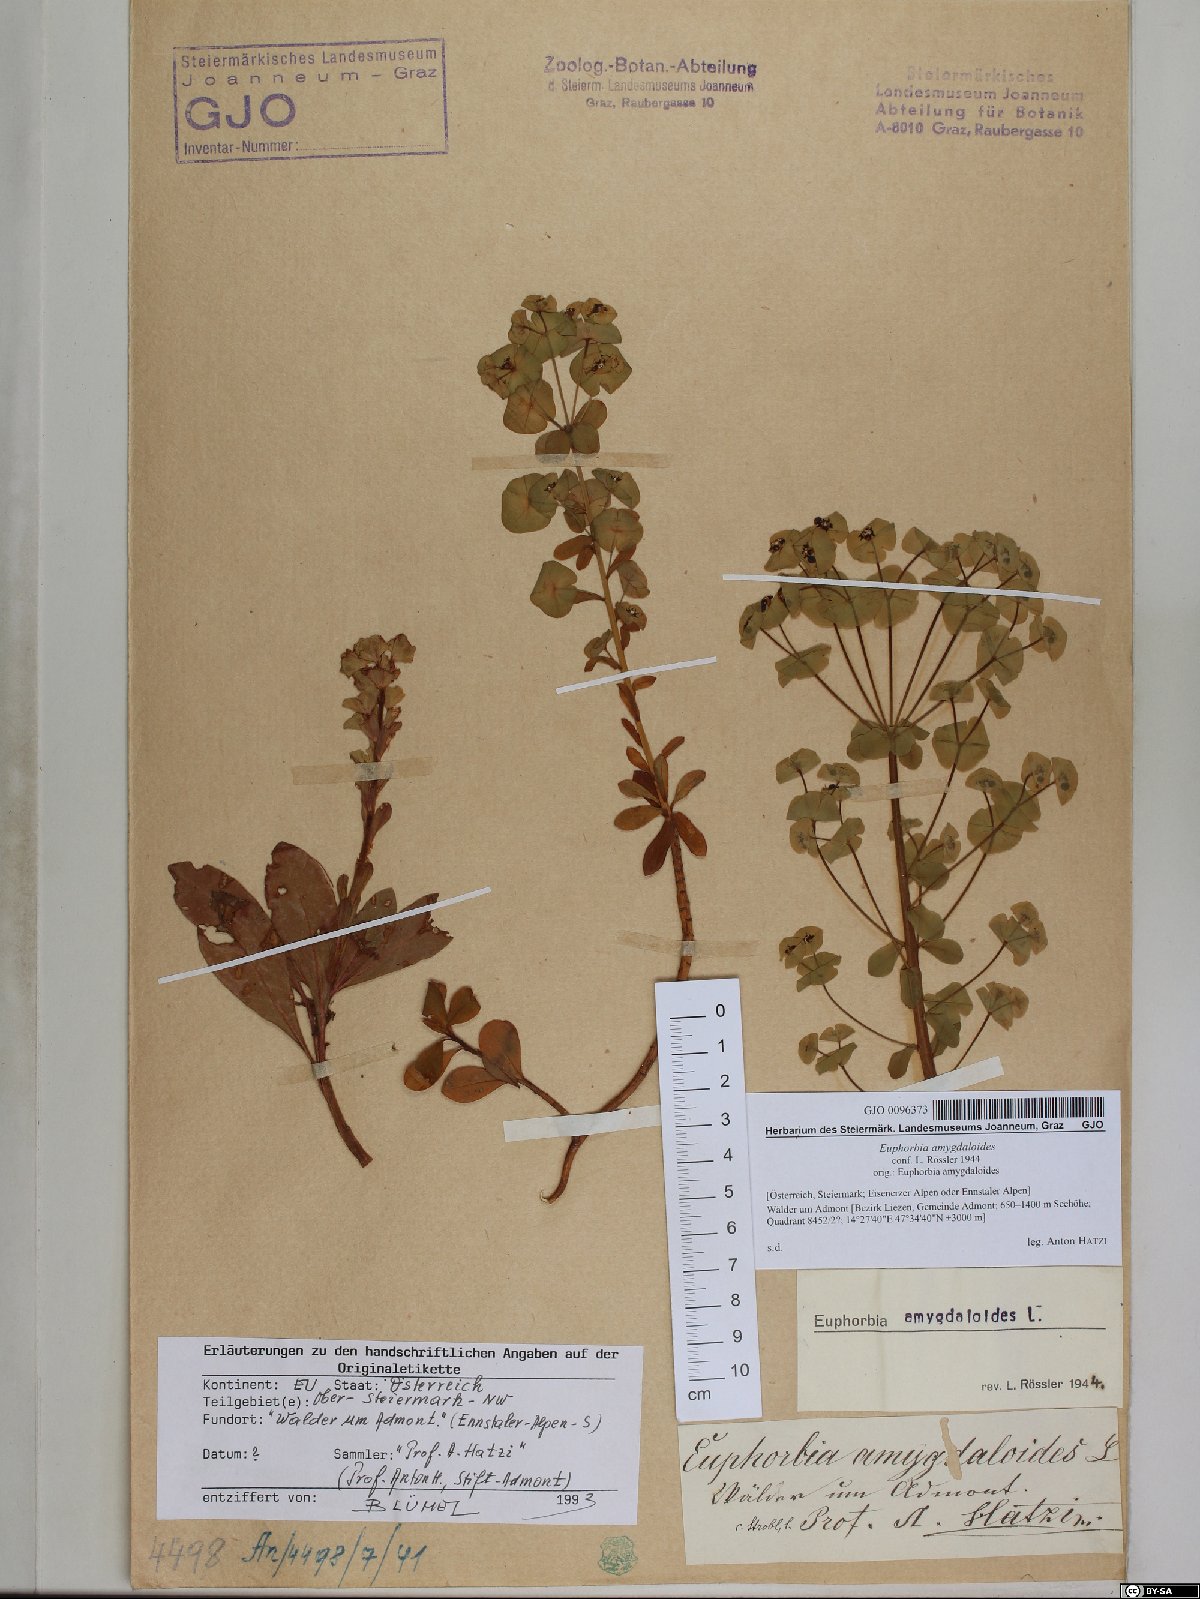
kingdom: Plantae
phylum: Tracheophyta
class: Magnoliopsida
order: Malpighiales
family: Euphorbiaceae
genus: Euphorbia
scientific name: Euphorbia amygdaloides
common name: Wood spurge
